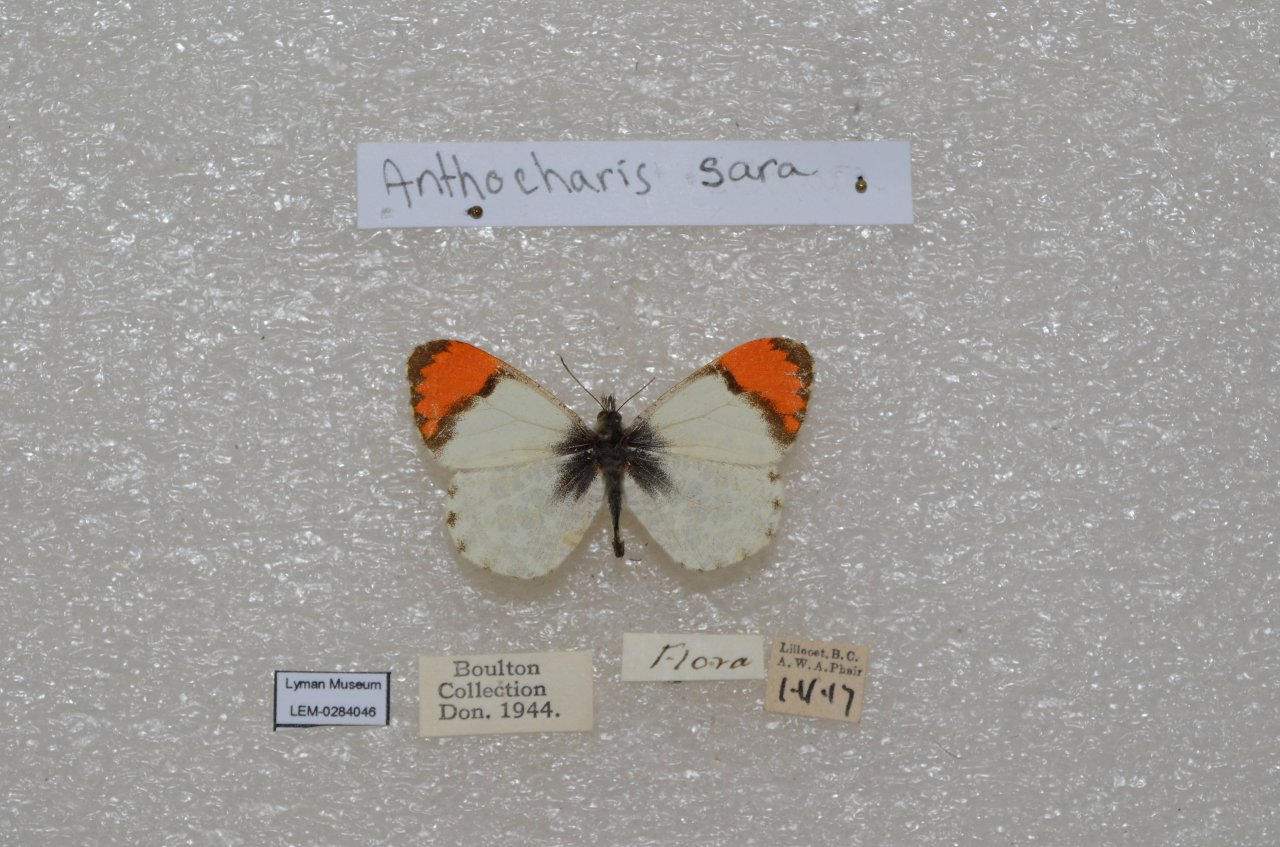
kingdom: Animalia
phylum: Arthropoda
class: Insecta
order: Lepidoptera
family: Pieridae
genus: Anthocharis
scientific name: Anthocharis sara
